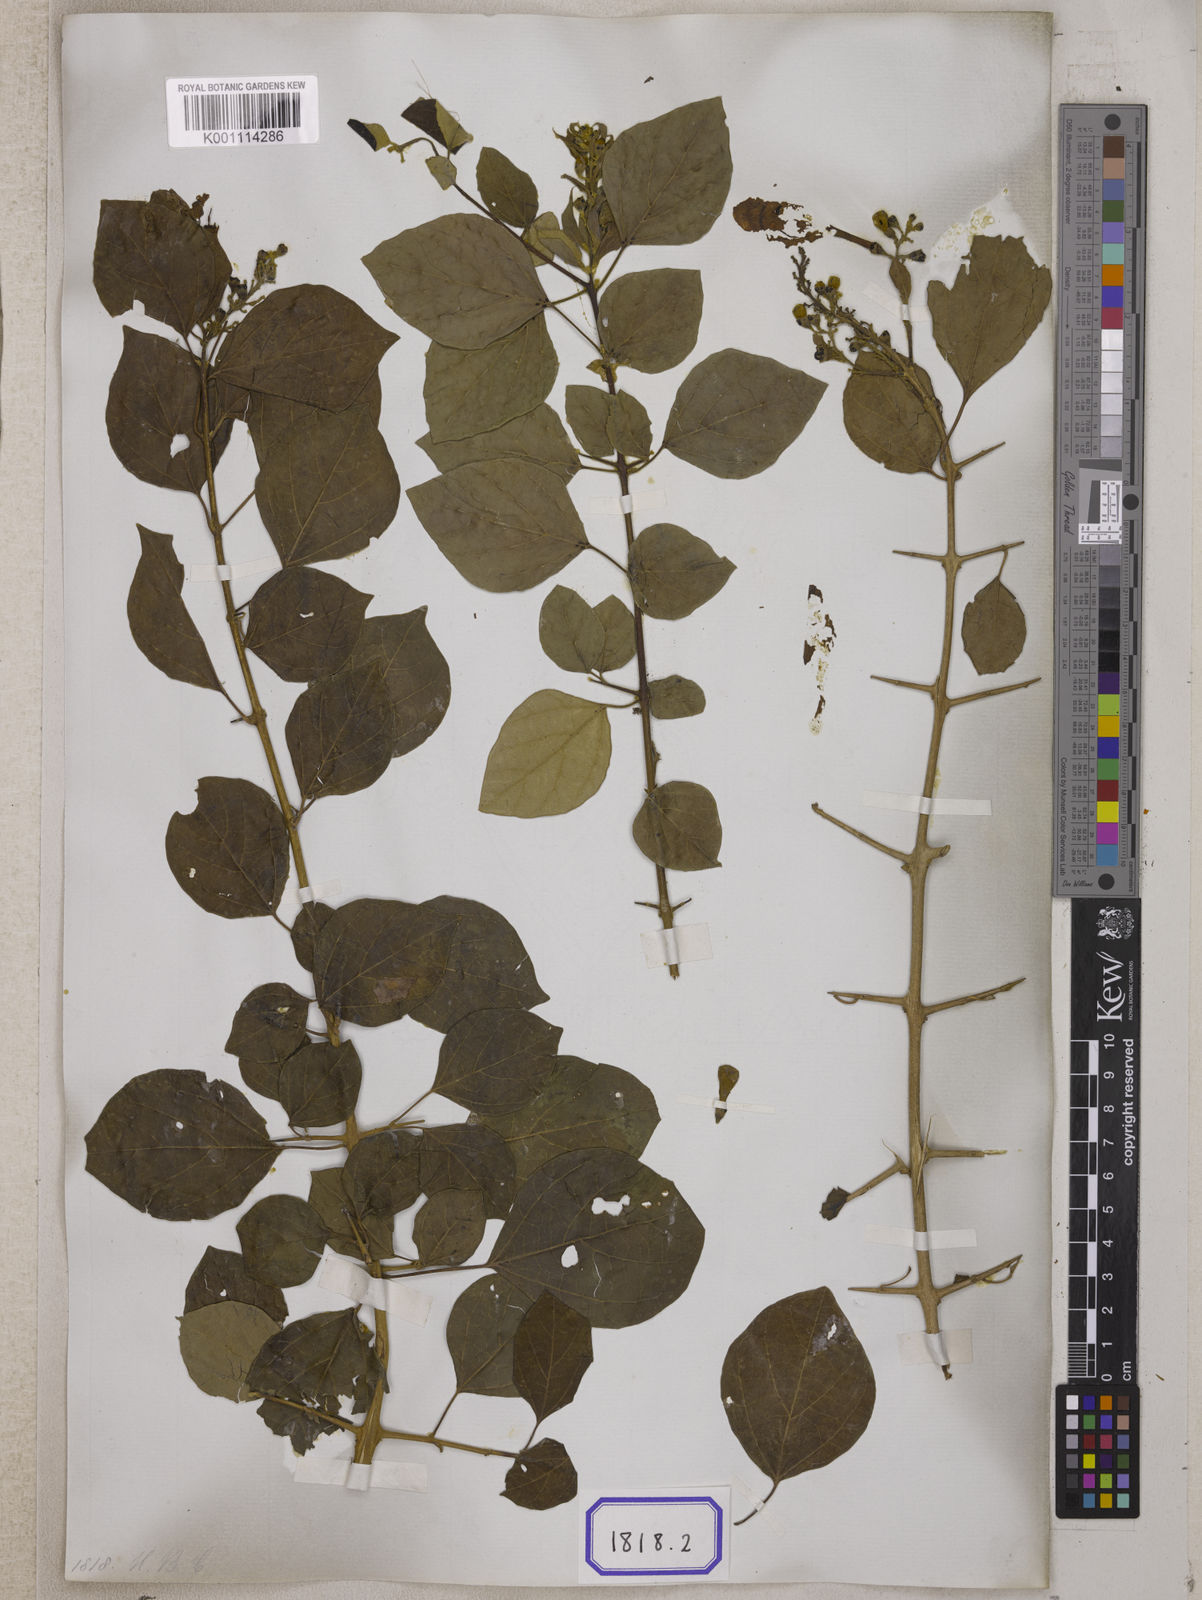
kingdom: Plantae
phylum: Tracheophyta
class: Magnoliopsida
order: Lamiales
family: Lamiaceae
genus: Gmelina
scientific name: Gmelina asiatica
